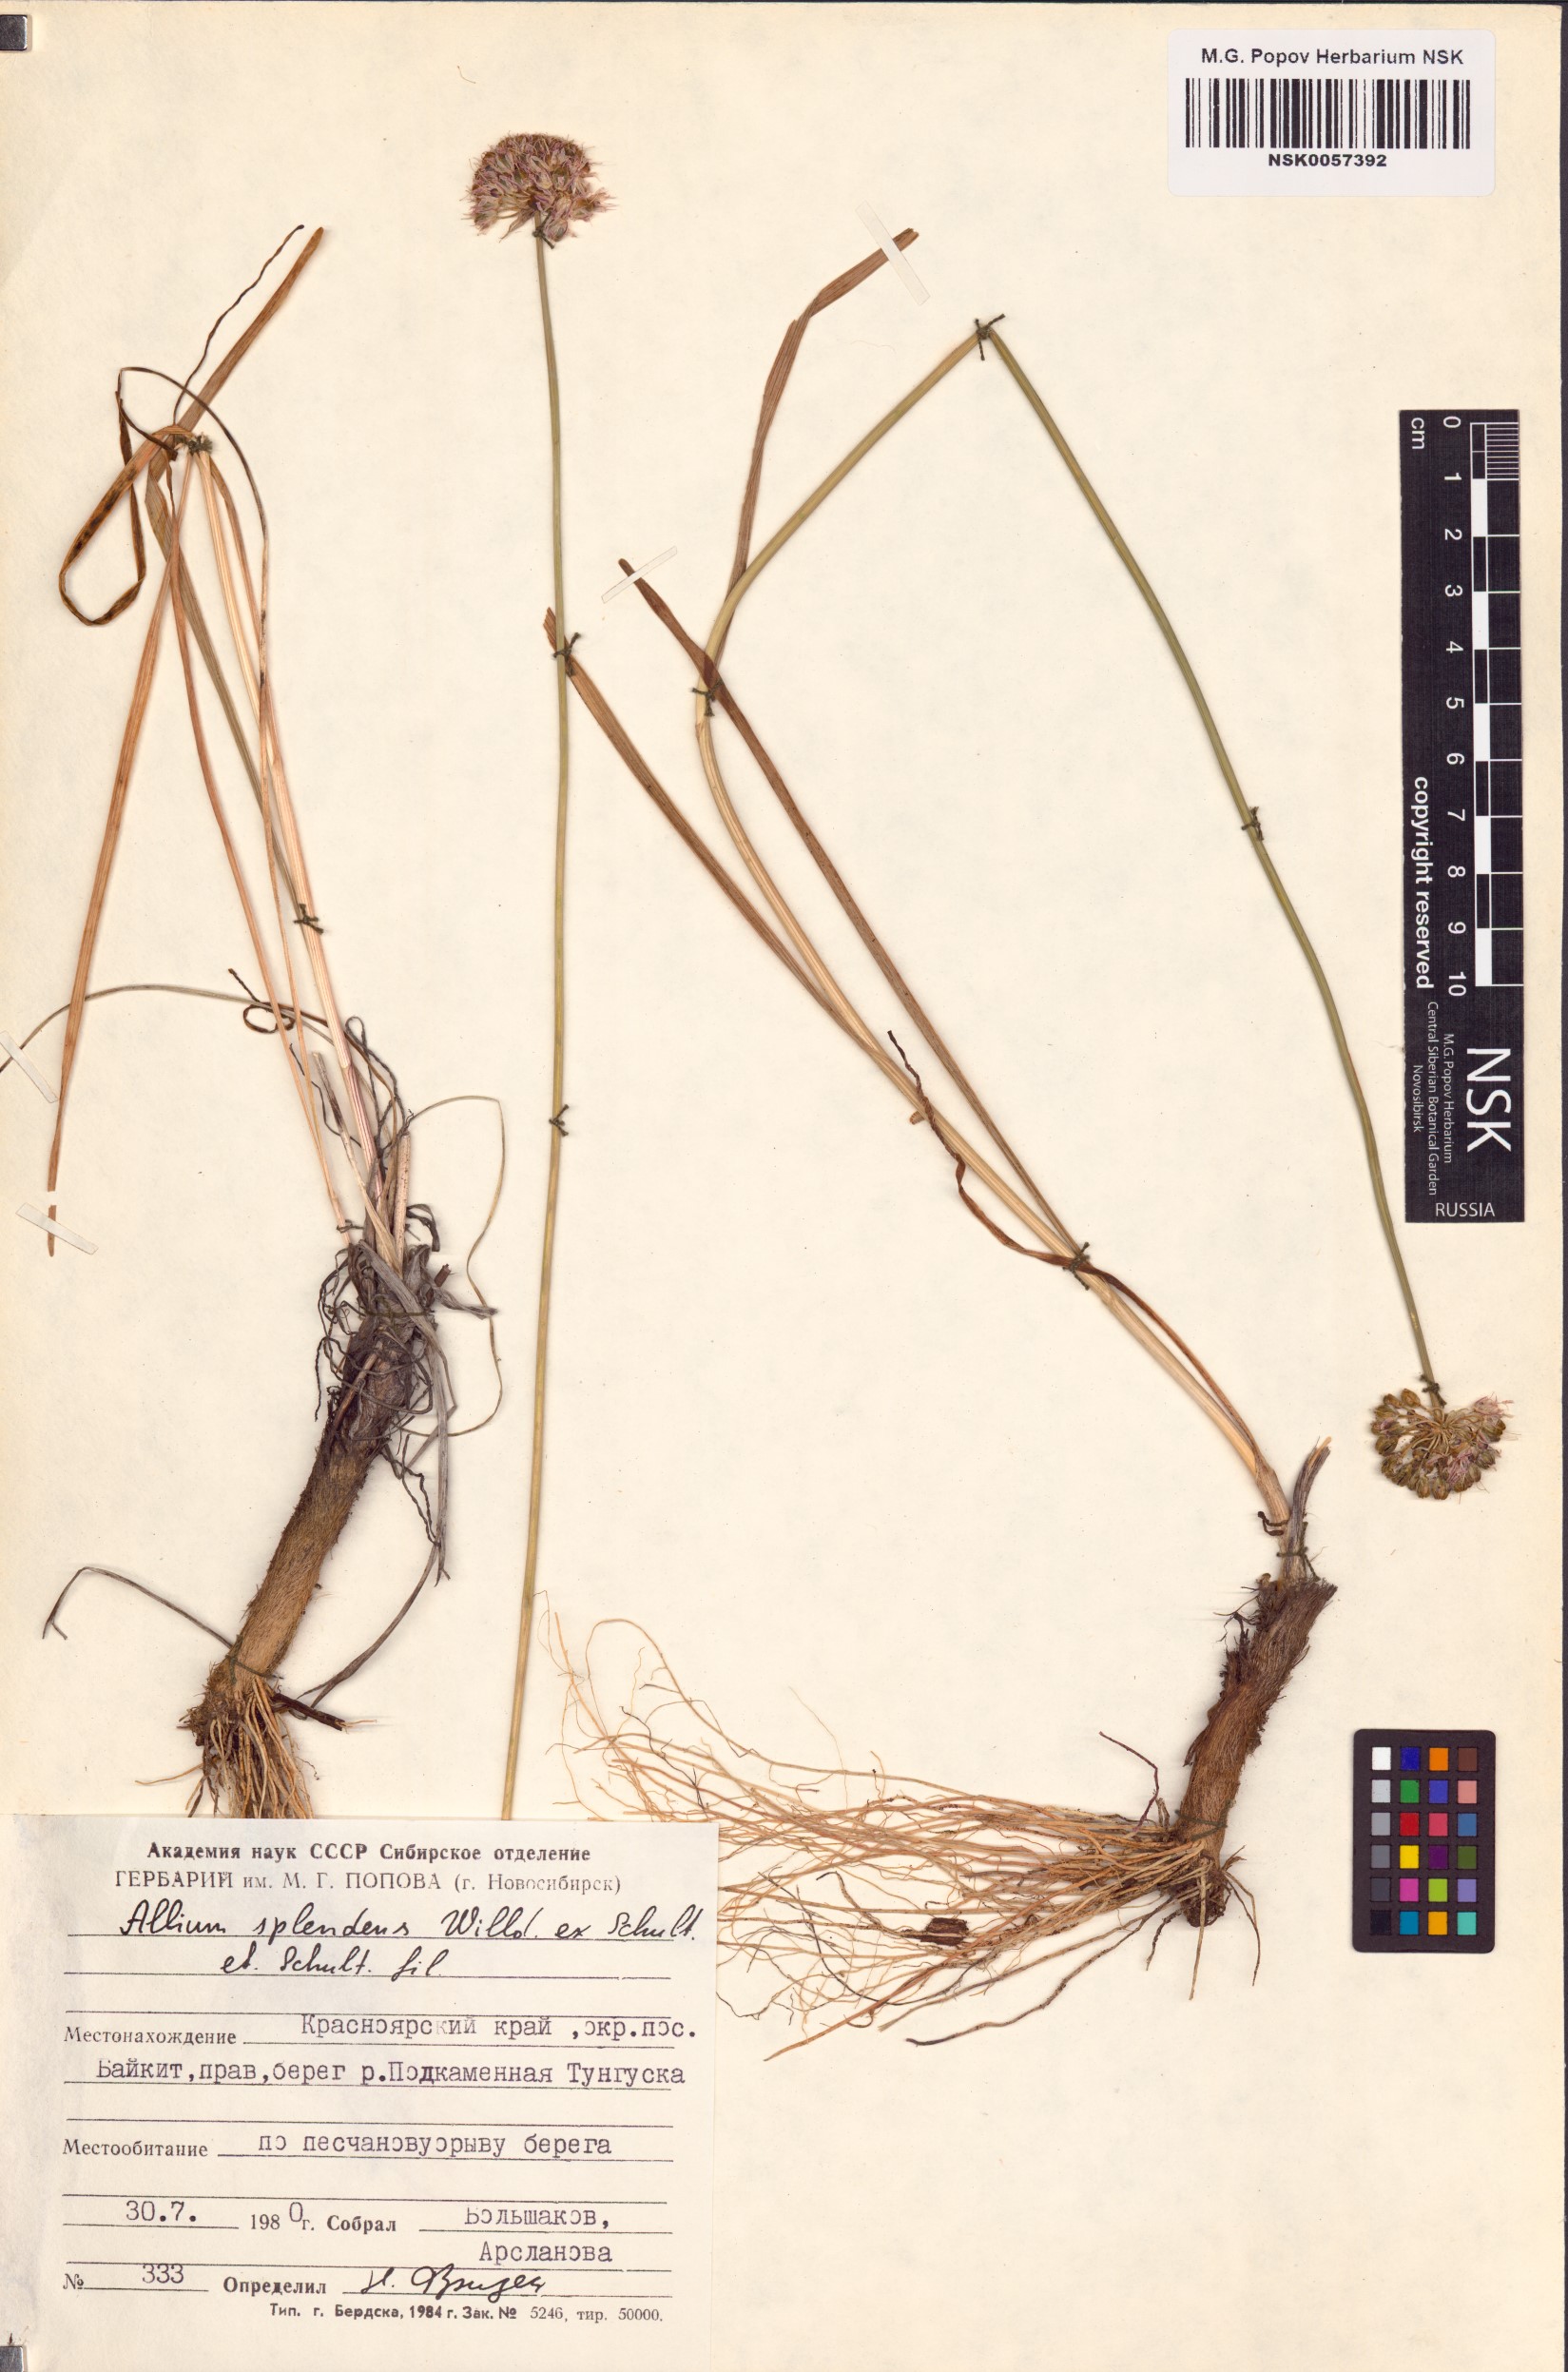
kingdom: Plantae
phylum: Tracheophyta
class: Liliopsida
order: Asparagales
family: Amaryllidaceae
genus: Allium
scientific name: Allium splendens
